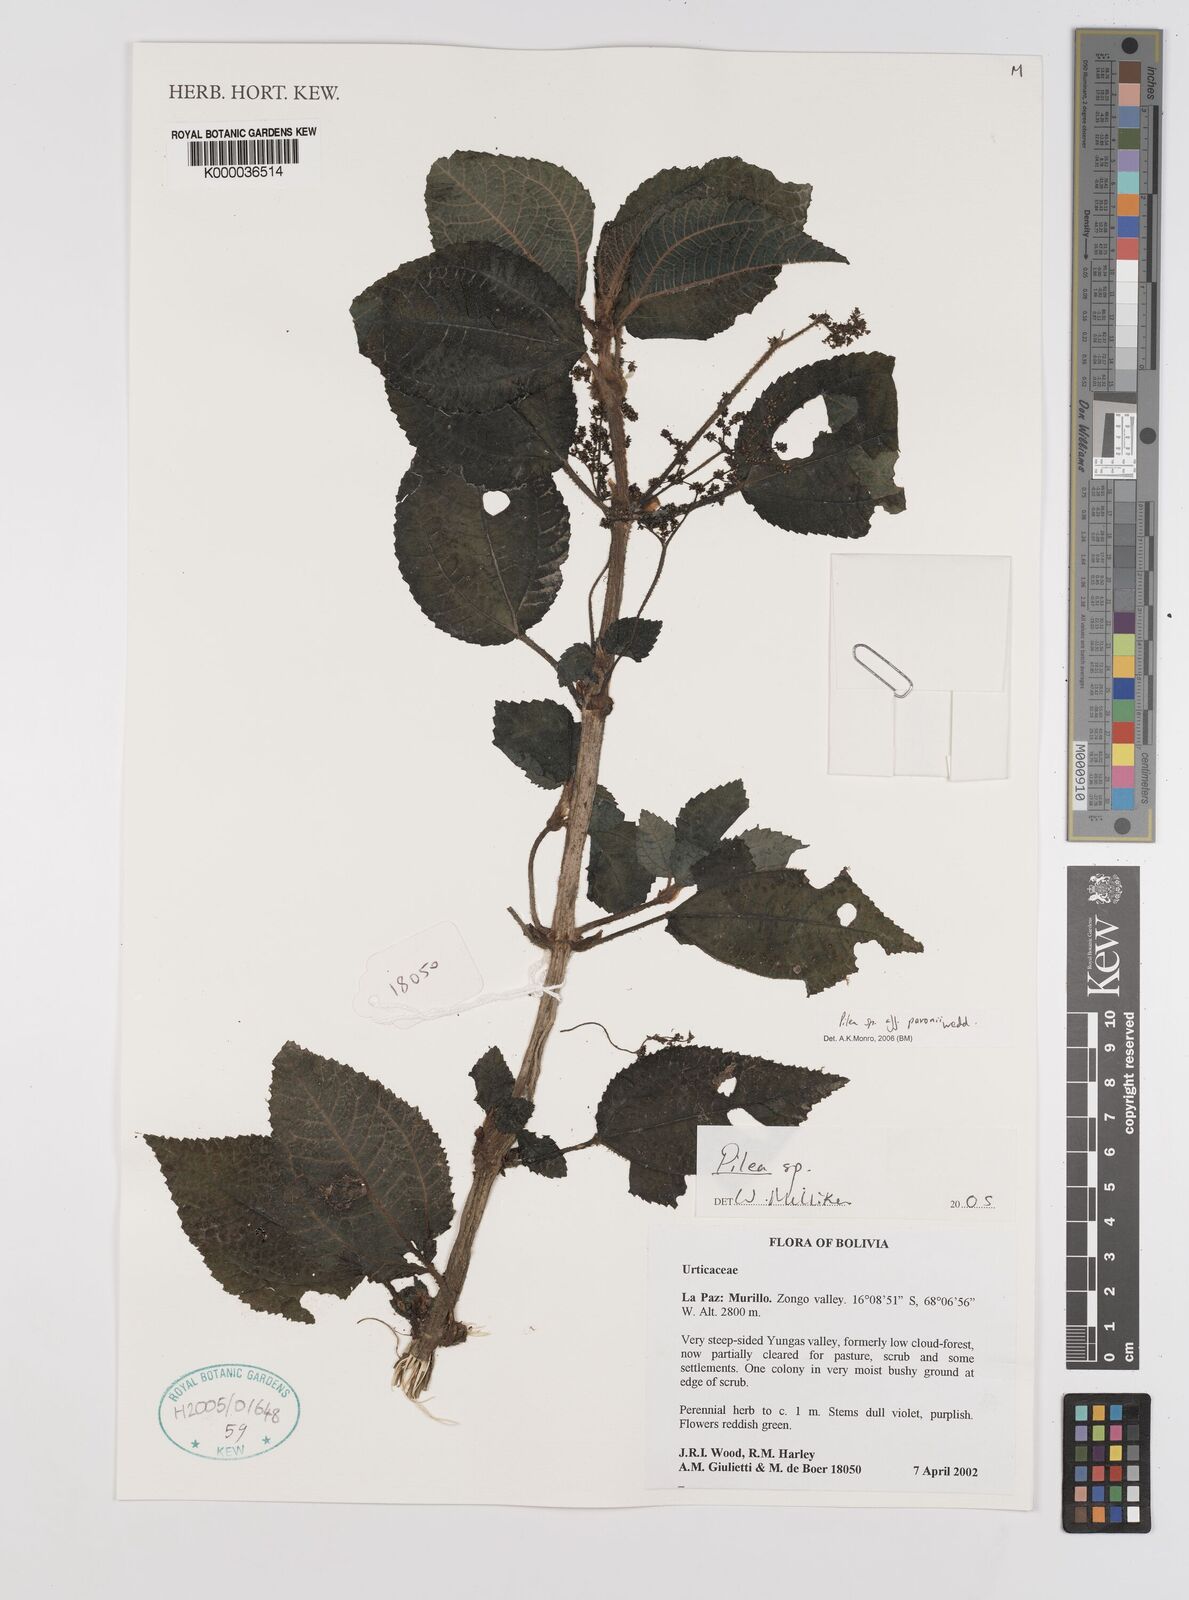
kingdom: Plantae
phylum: Tracheophyta
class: Magnoliopsida
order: Rosales
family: Urticaceae
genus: Pilea
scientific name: Pilea
